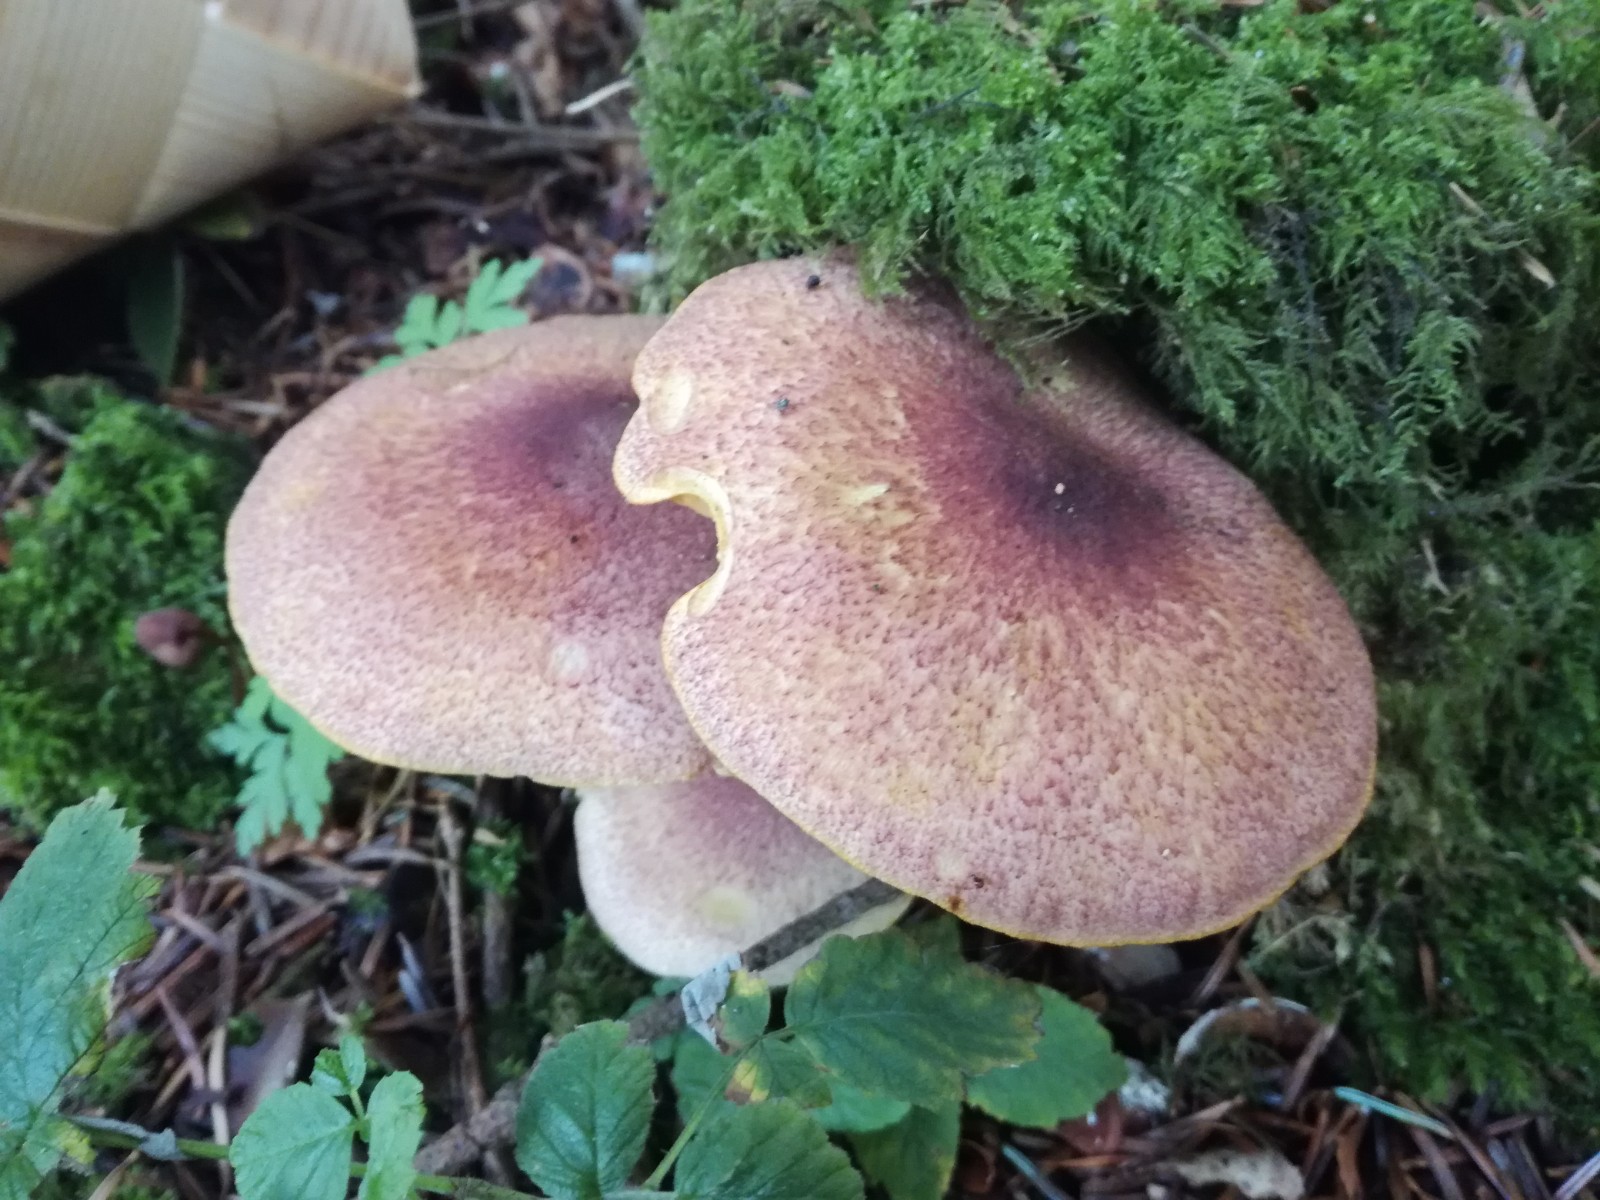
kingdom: Fungi
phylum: Basidiomycota
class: Agaricomycetes
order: Agaricales
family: Tricholomataceae
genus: Tricholomopsis
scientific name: Tricholomopsis rutilans
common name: purpur-væbnerhat
